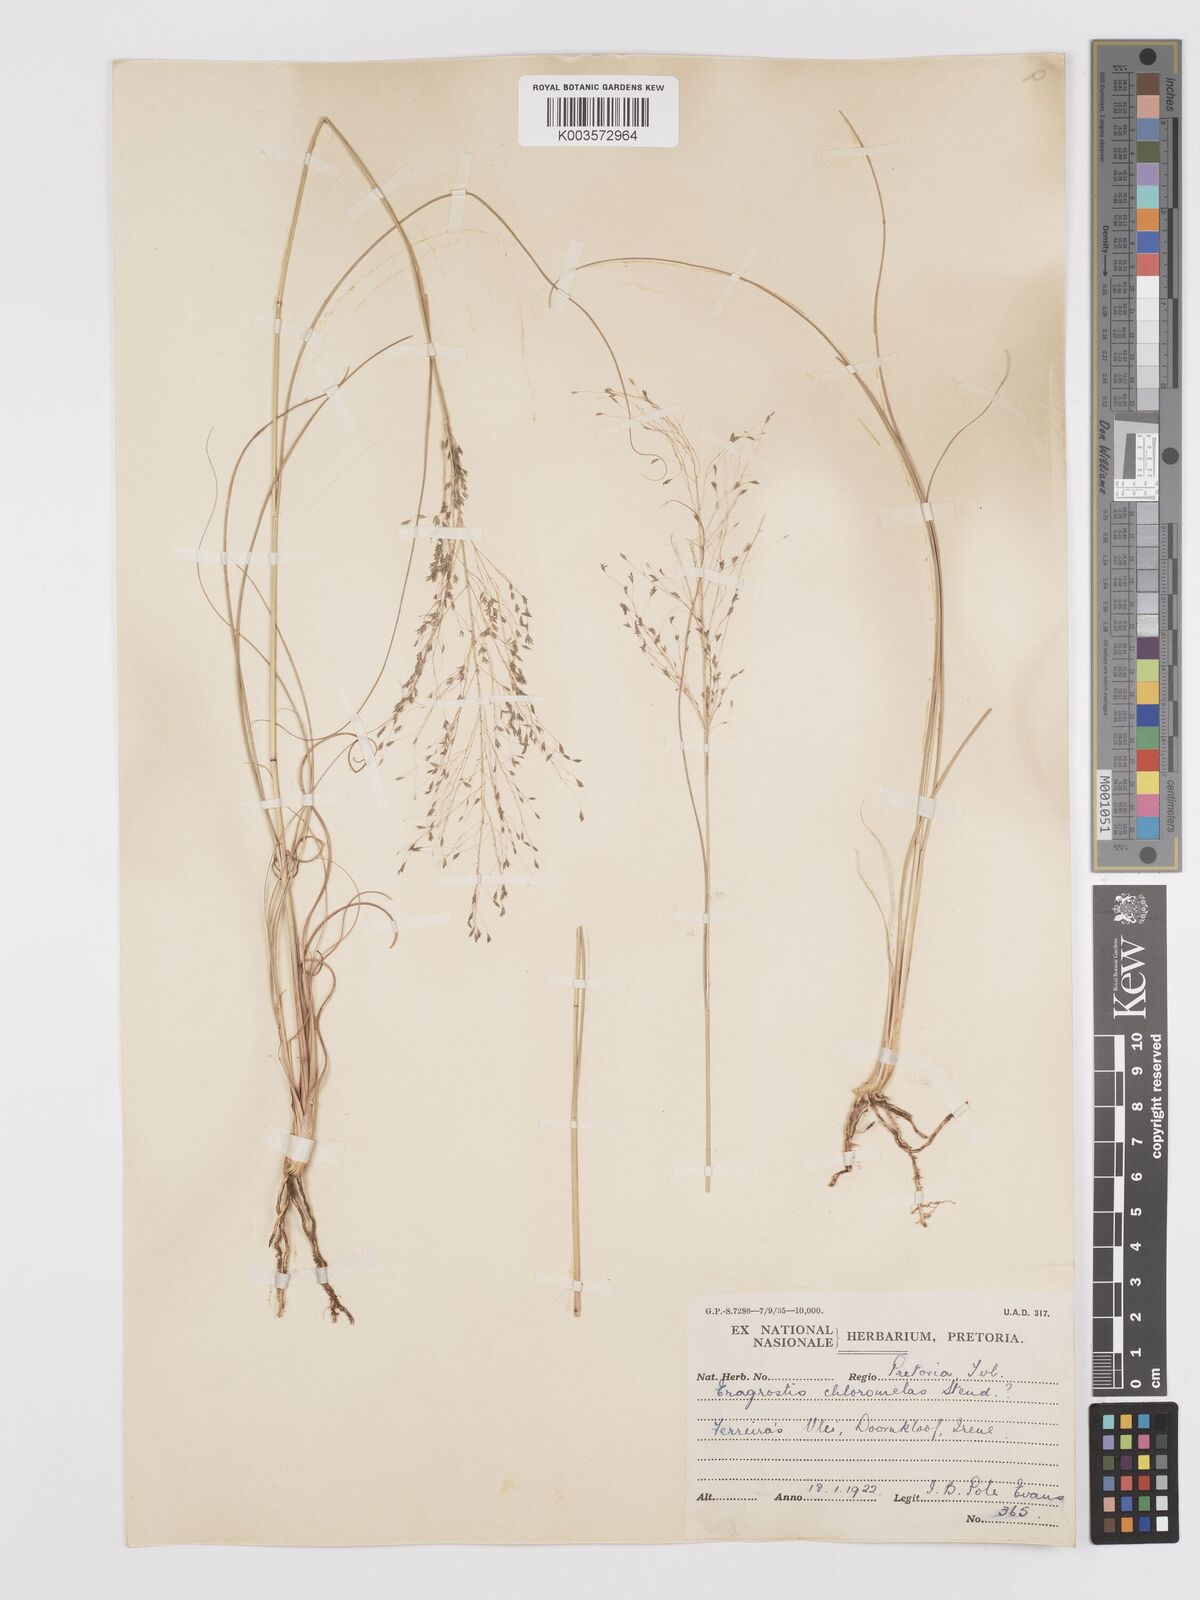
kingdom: Plantae
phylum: Tracheophyta
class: Liliopsida
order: Poales
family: Poaceae
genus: Eragrostis
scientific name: Eragrostis curvula
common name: African love-grass
